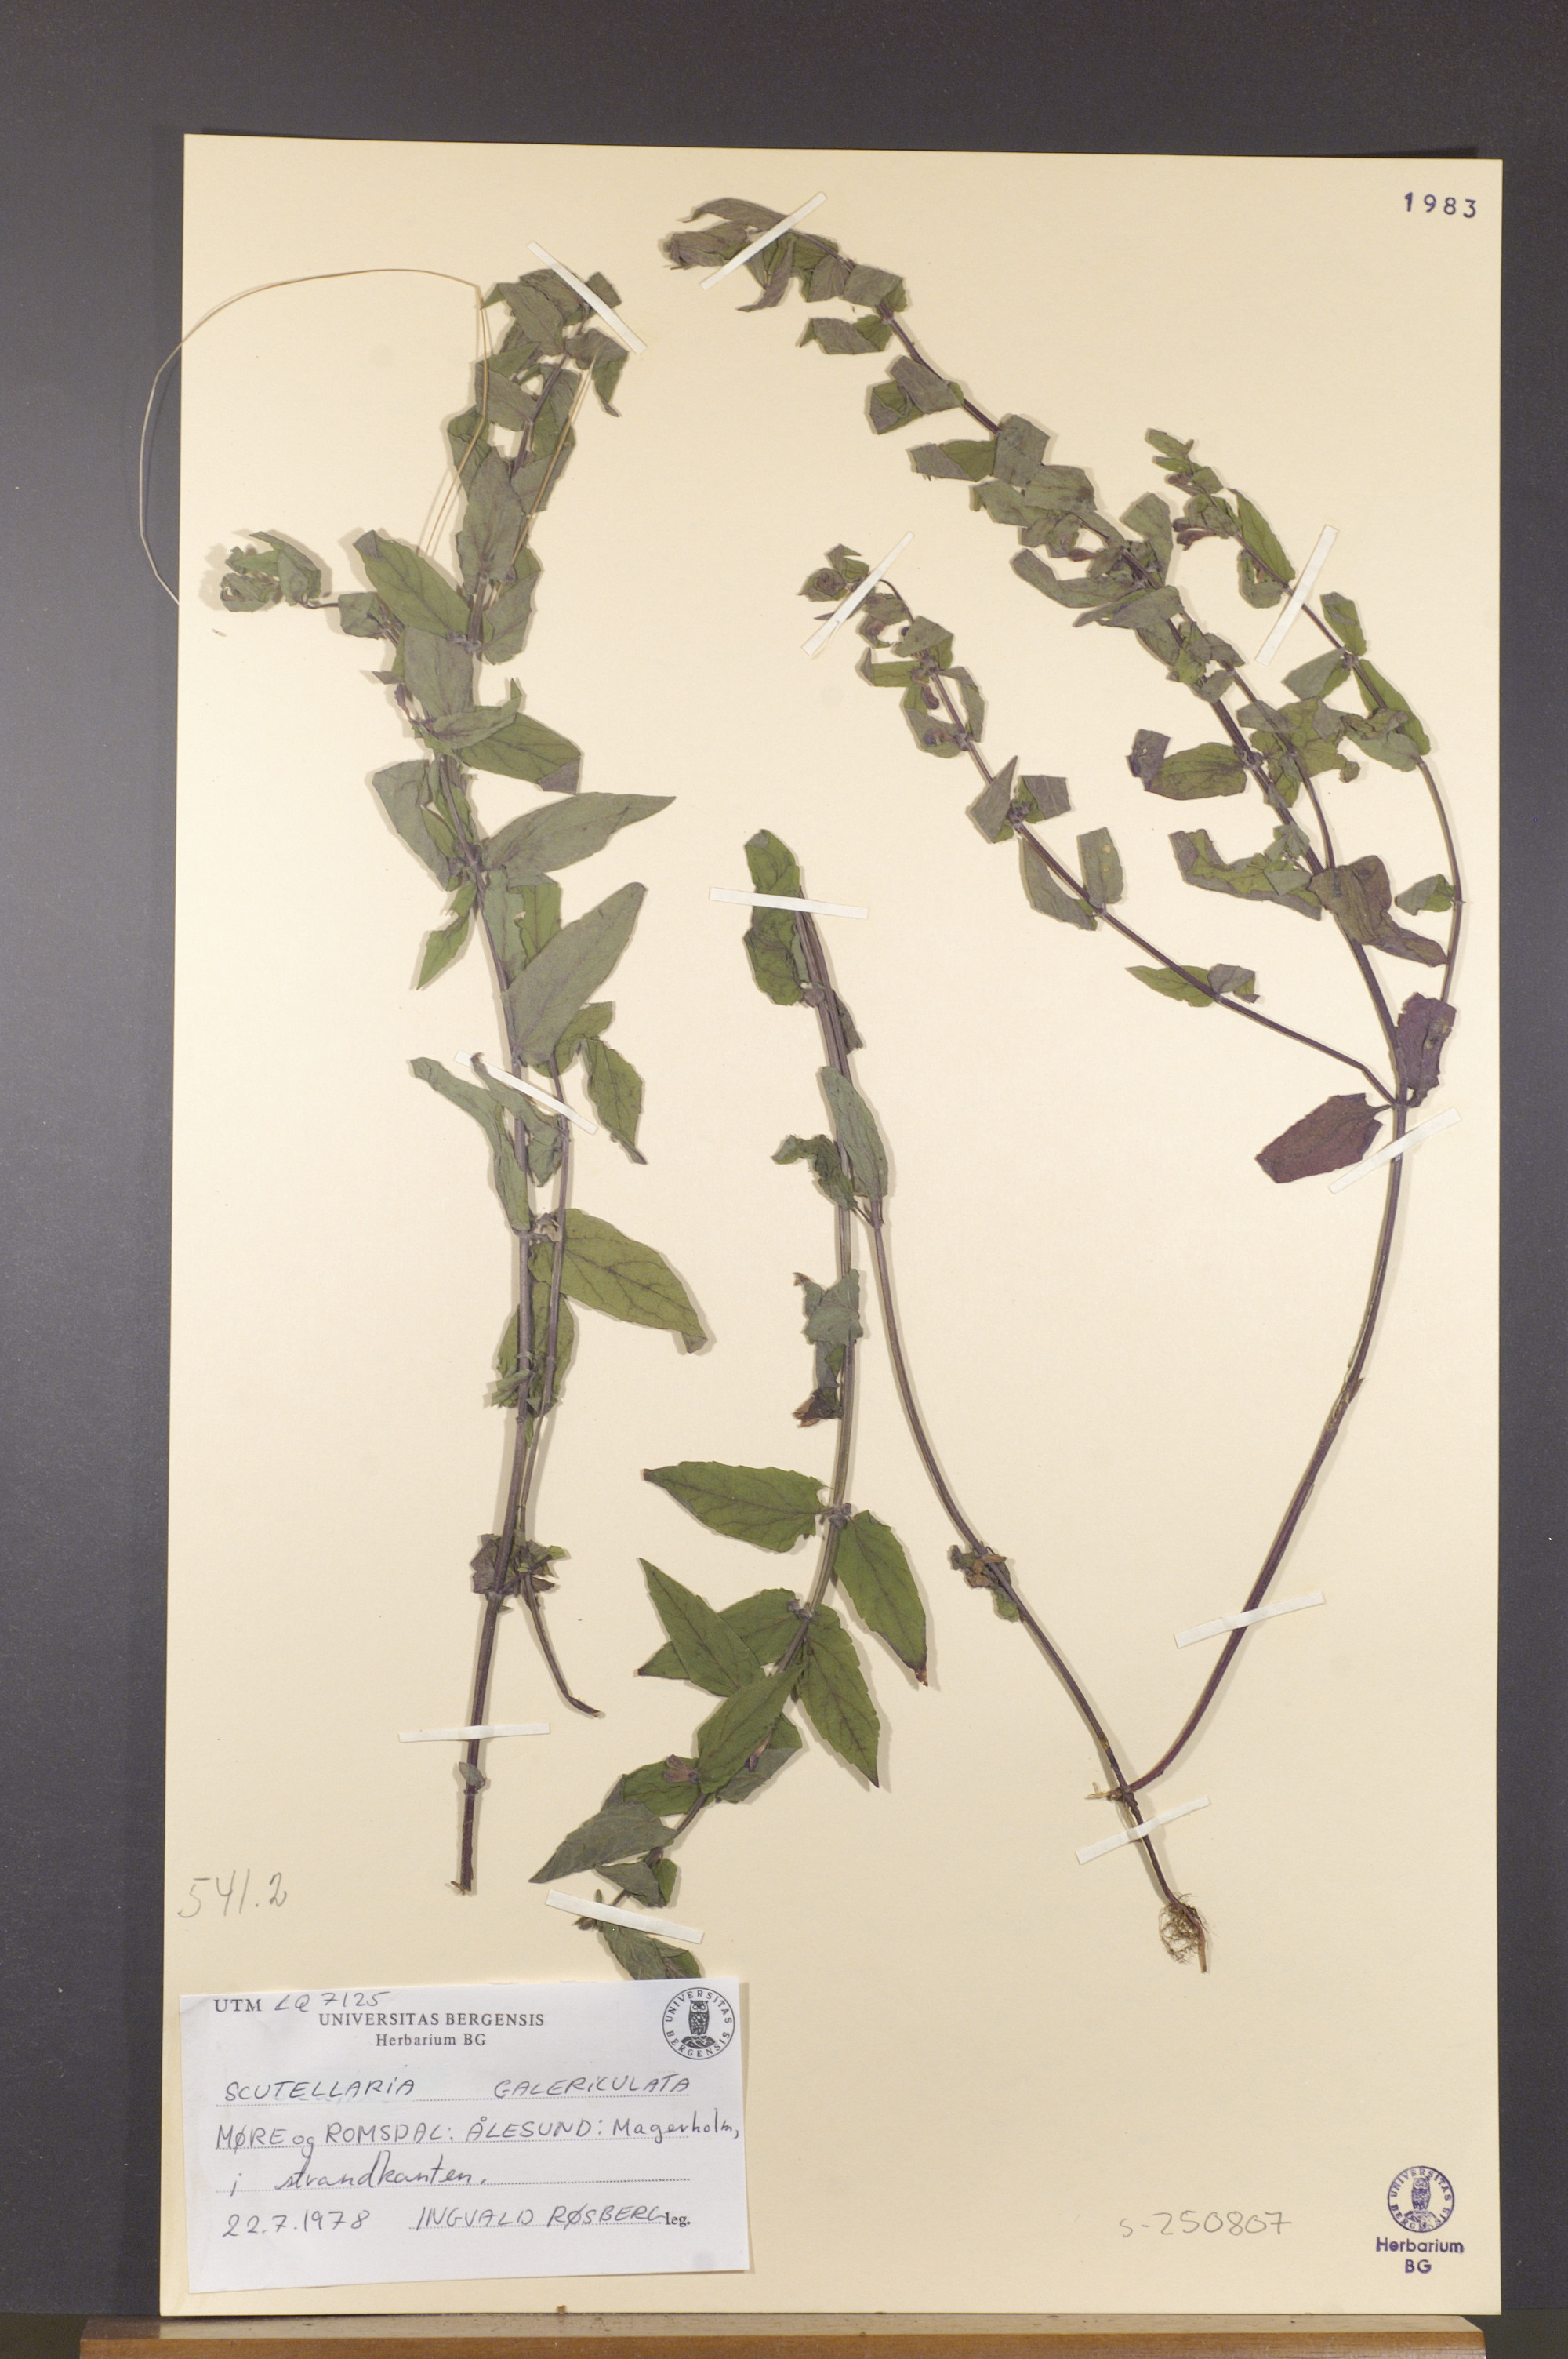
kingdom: Plantae
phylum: Tracheophyta
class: Magnoliopsida
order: Lamiales
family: Lamiaceae
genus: Scutellaria
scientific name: Scutellaria galericulata
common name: Skullcap
